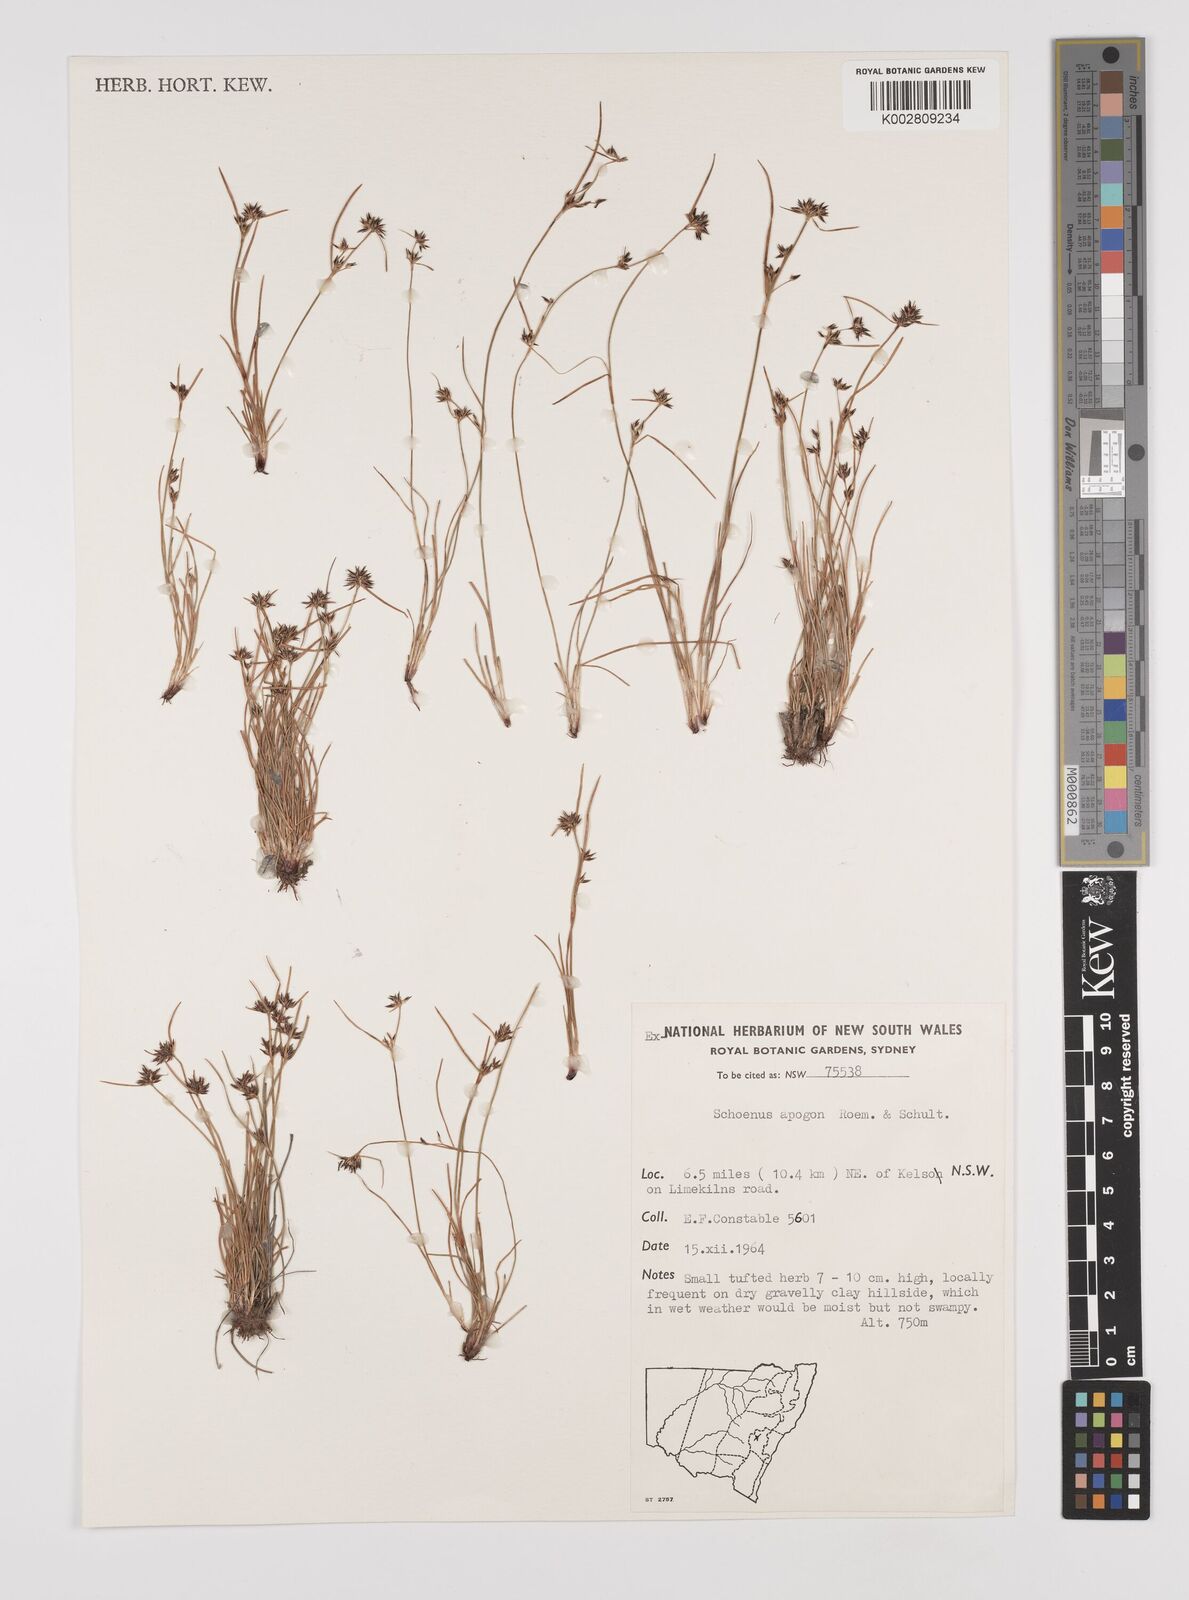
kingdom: Plantae
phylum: Tracheophyta
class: Liliopsida
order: Poales
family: Cyperaceae
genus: Schoenus
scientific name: Schoenus apogon
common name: Smooth bogrush
